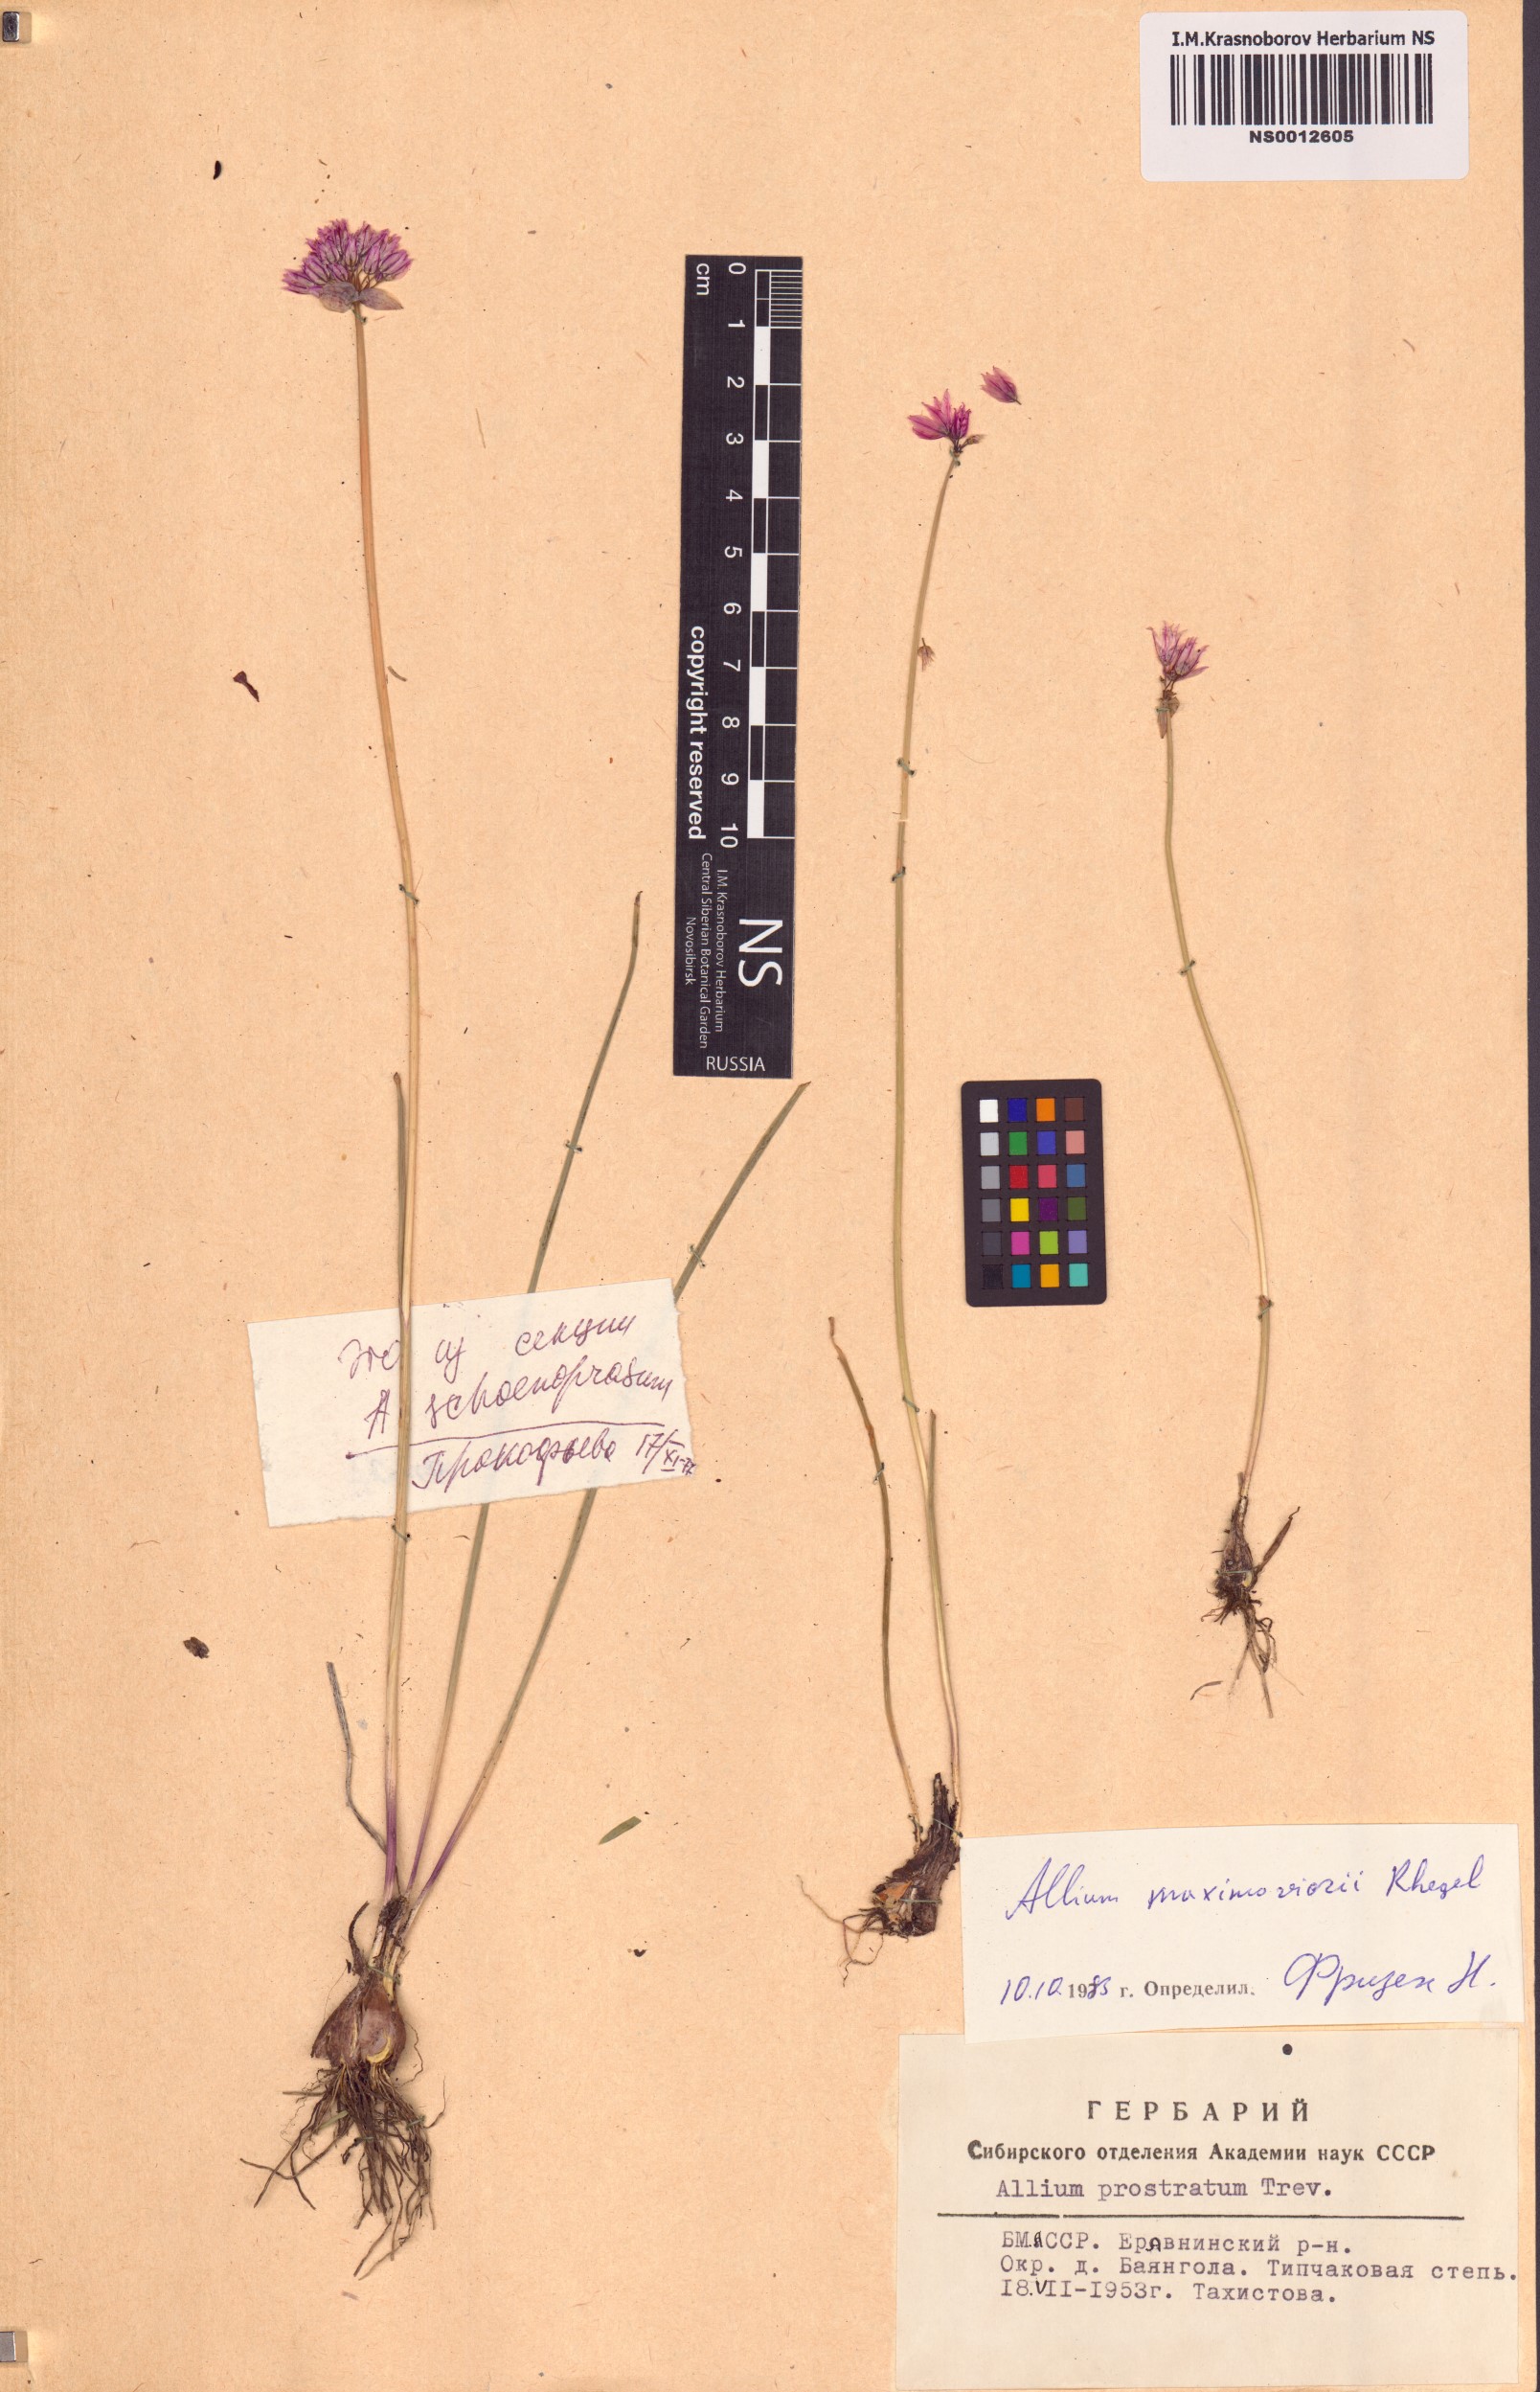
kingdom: Plantae
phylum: Tracheophyta
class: Liliopsida
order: Asparagales
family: Amaryllidaceae
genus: Allium
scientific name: Allium maximowiczii
